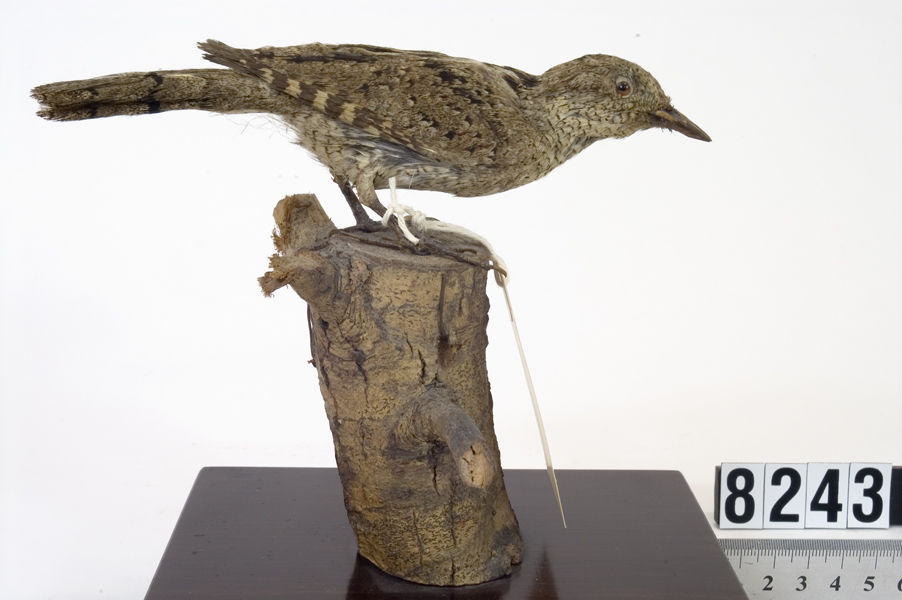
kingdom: Animalia
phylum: Chordata
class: Aves
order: Piciformes
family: Picidae
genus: Jynx
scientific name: Jynx torquilla
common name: Eurasian wryneck
